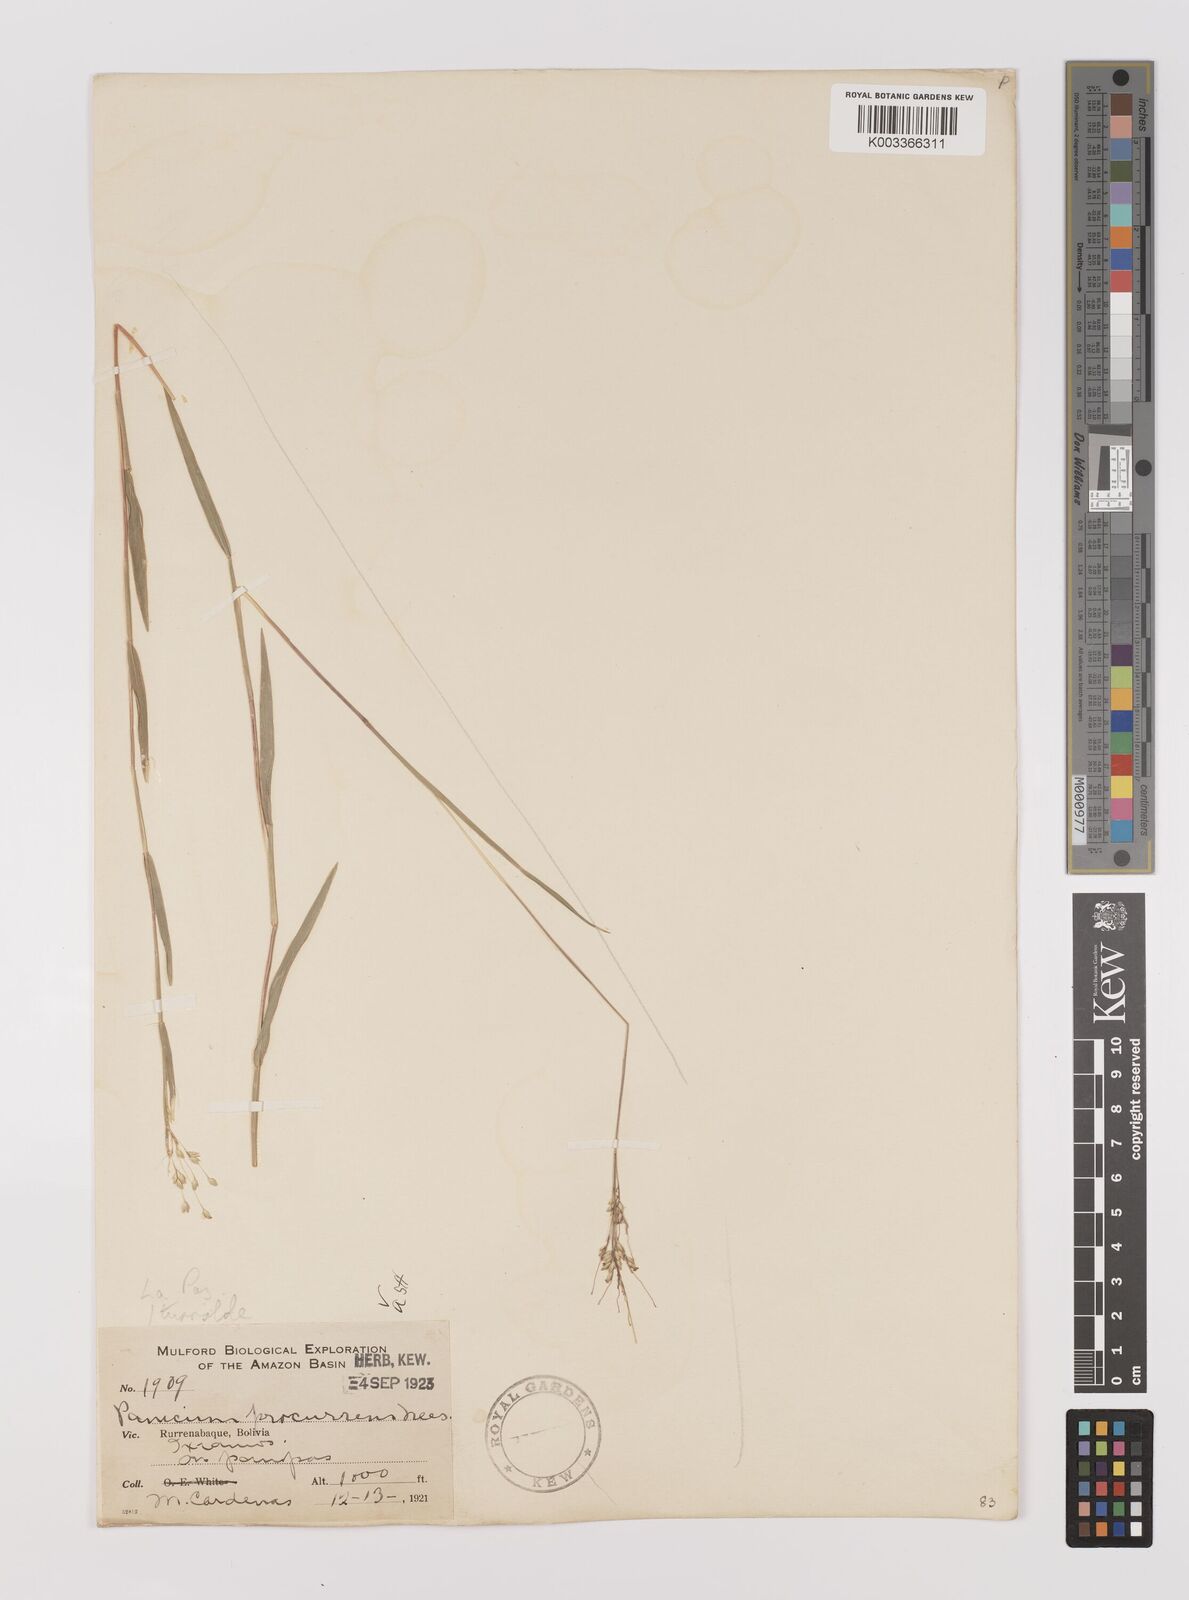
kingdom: Plantae
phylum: Tracheophyta
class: Liliopsida
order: Poales
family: Poaceae
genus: Oedochloa
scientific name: Oedochloa procurrens
